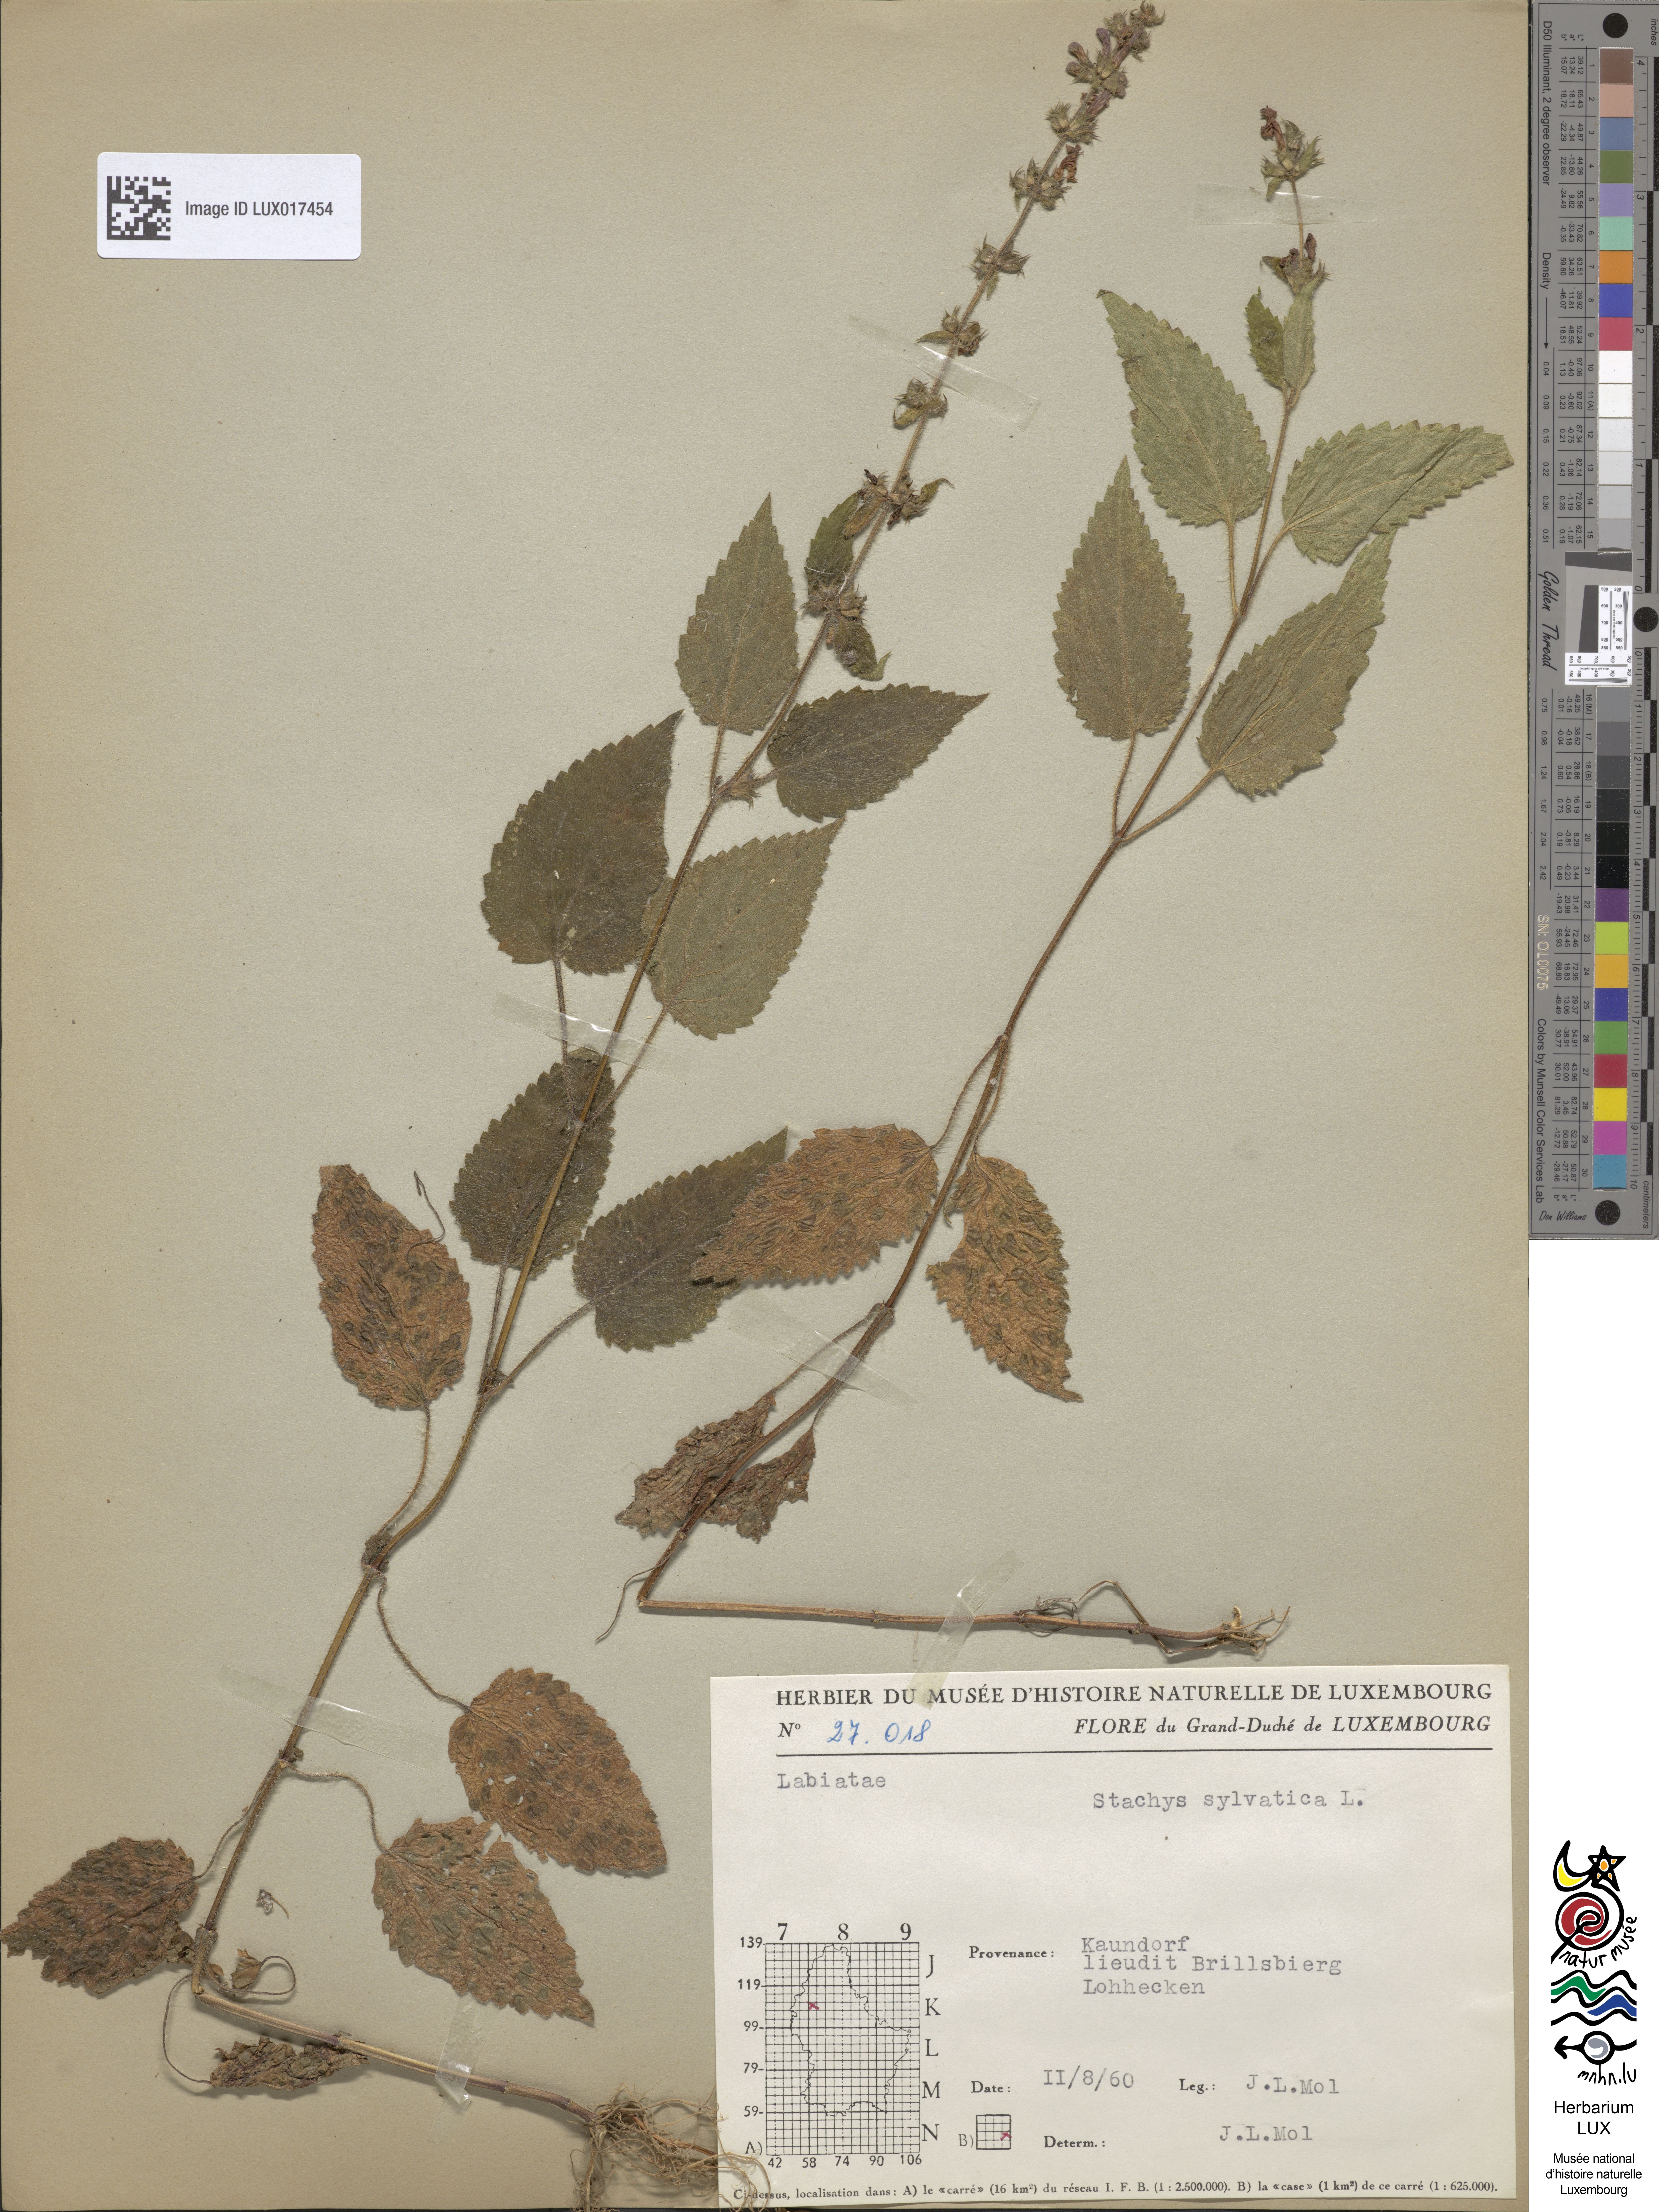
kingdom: Plantae
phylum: Tracheophyta
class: Magnoliopsida
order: Lamiales
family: Lamiaceae
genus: Stachys
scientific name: Stachys sylvatica
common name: Hedge woundwort
